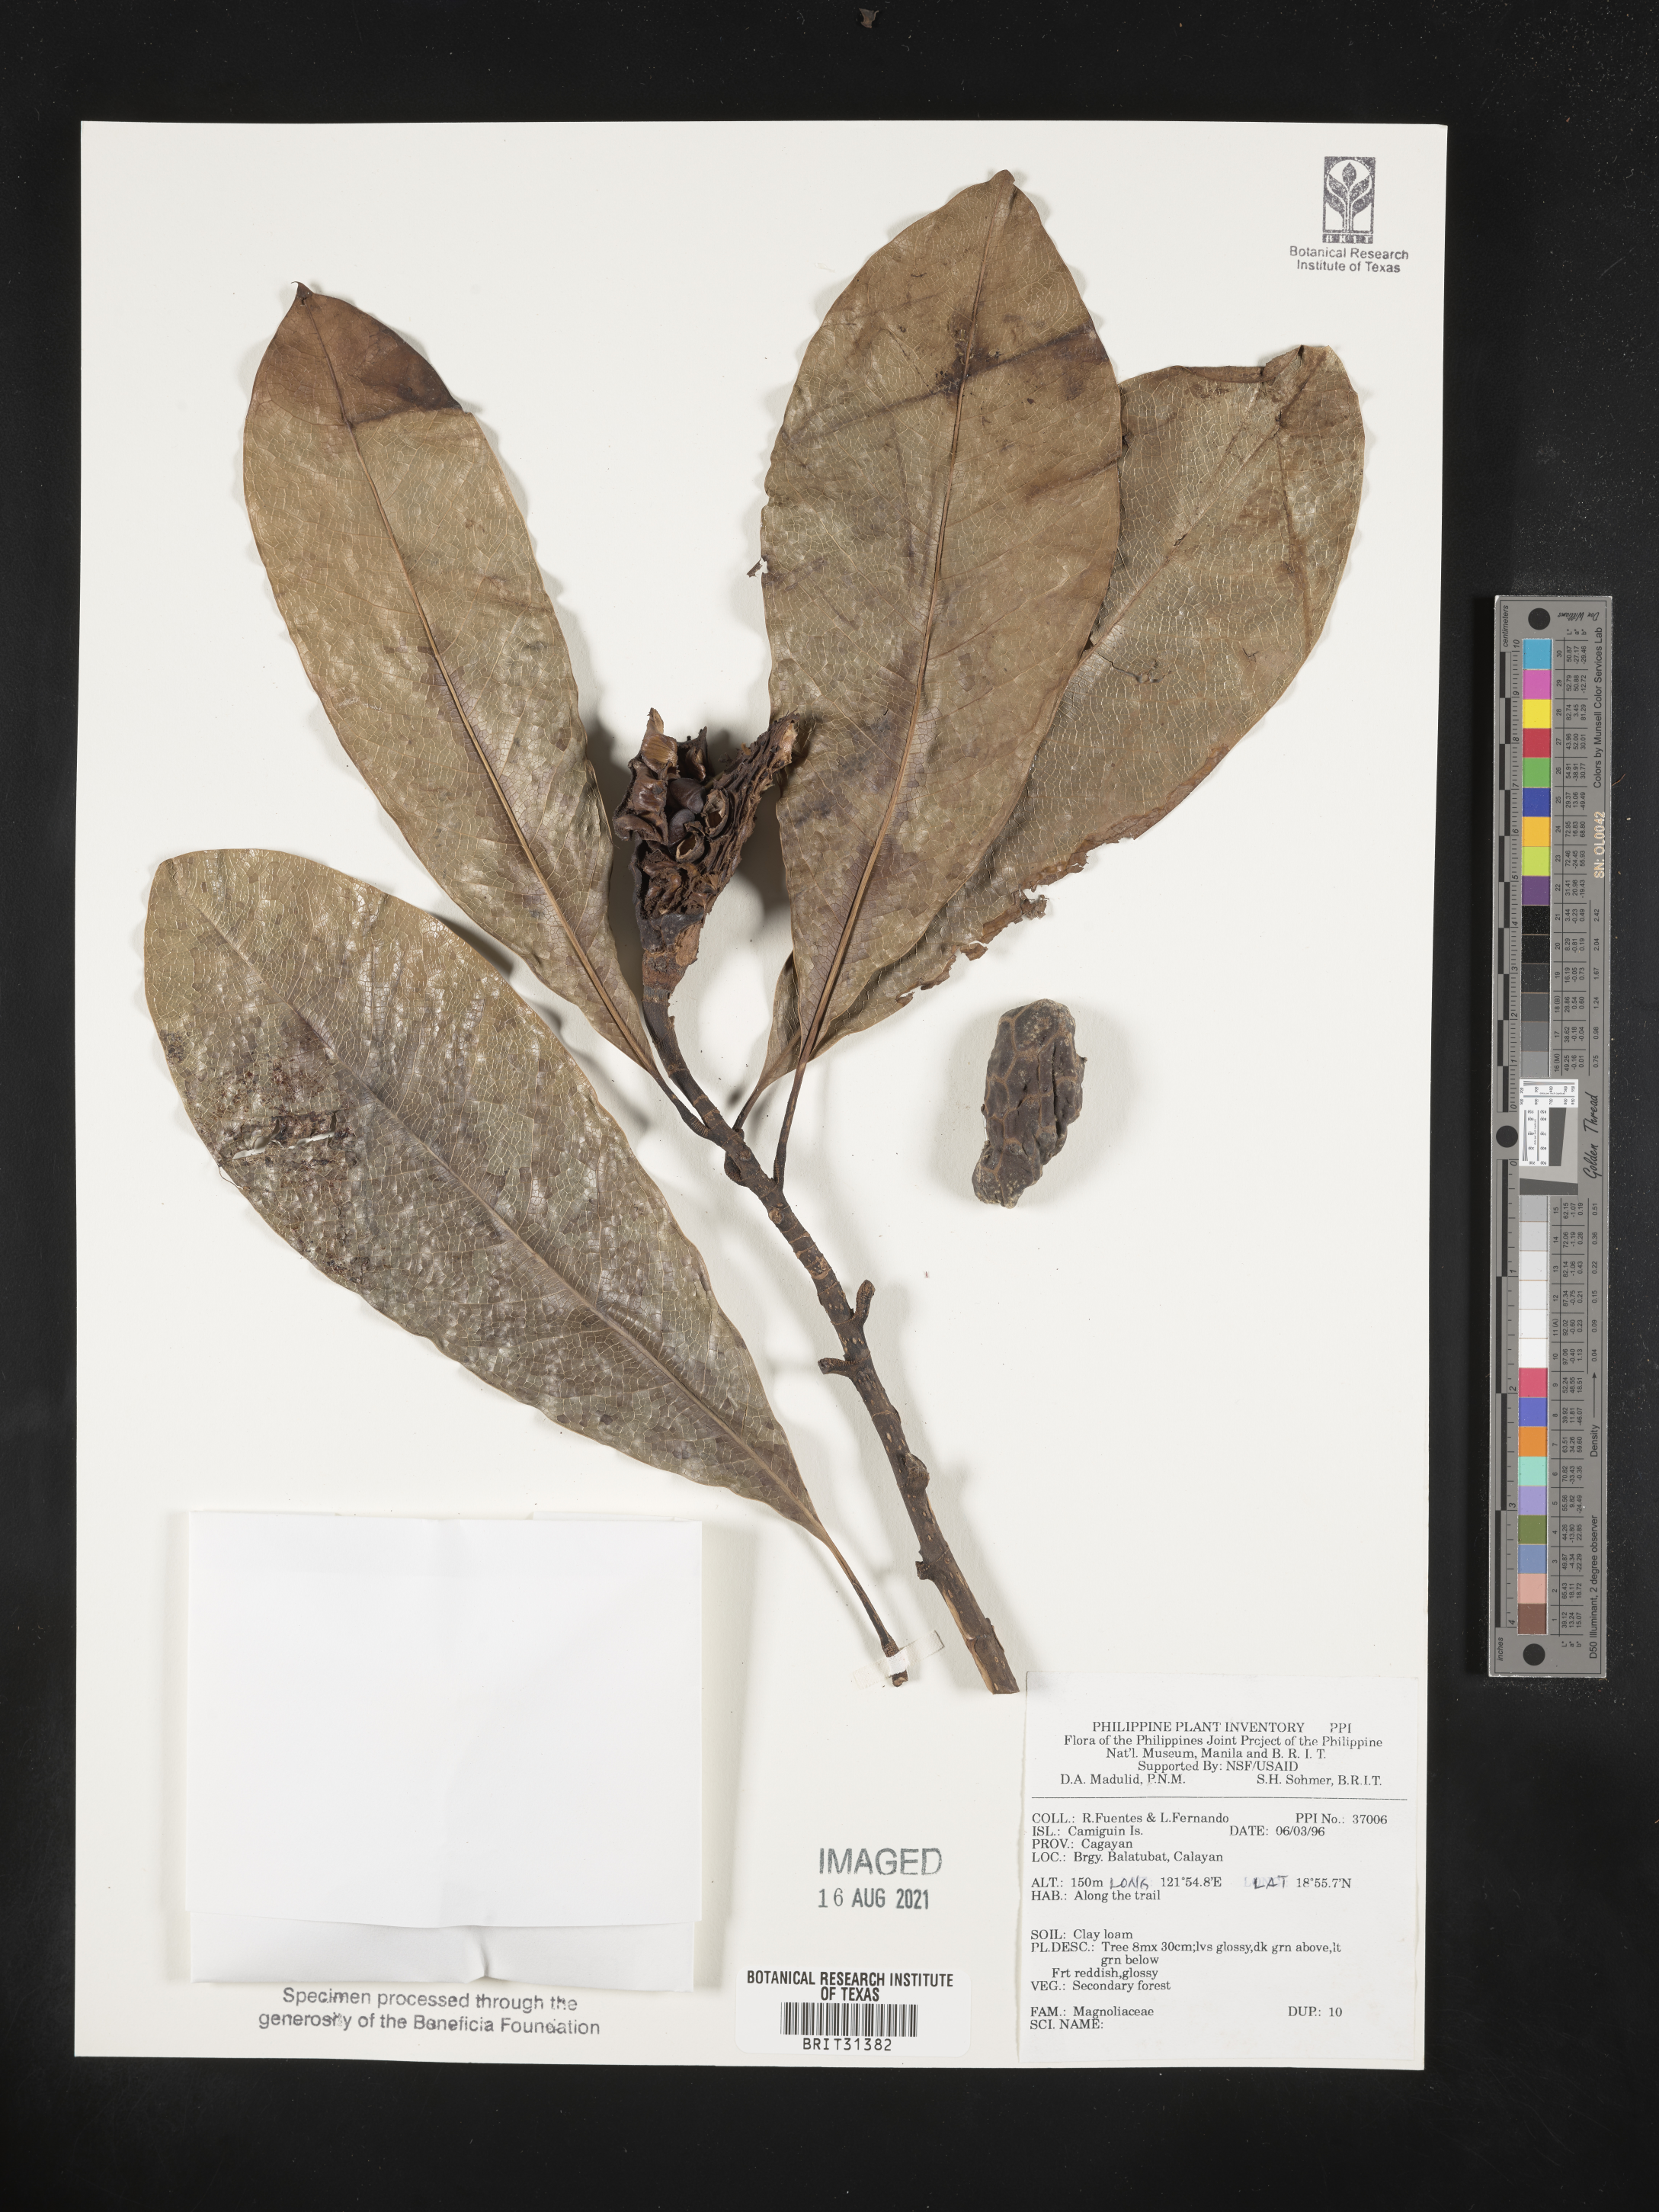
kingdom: Plantae
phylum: Tracheophyta
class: Magnoliopsida
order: Magnoliales
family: Magnoliaceae
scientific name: Magnoliaceae
